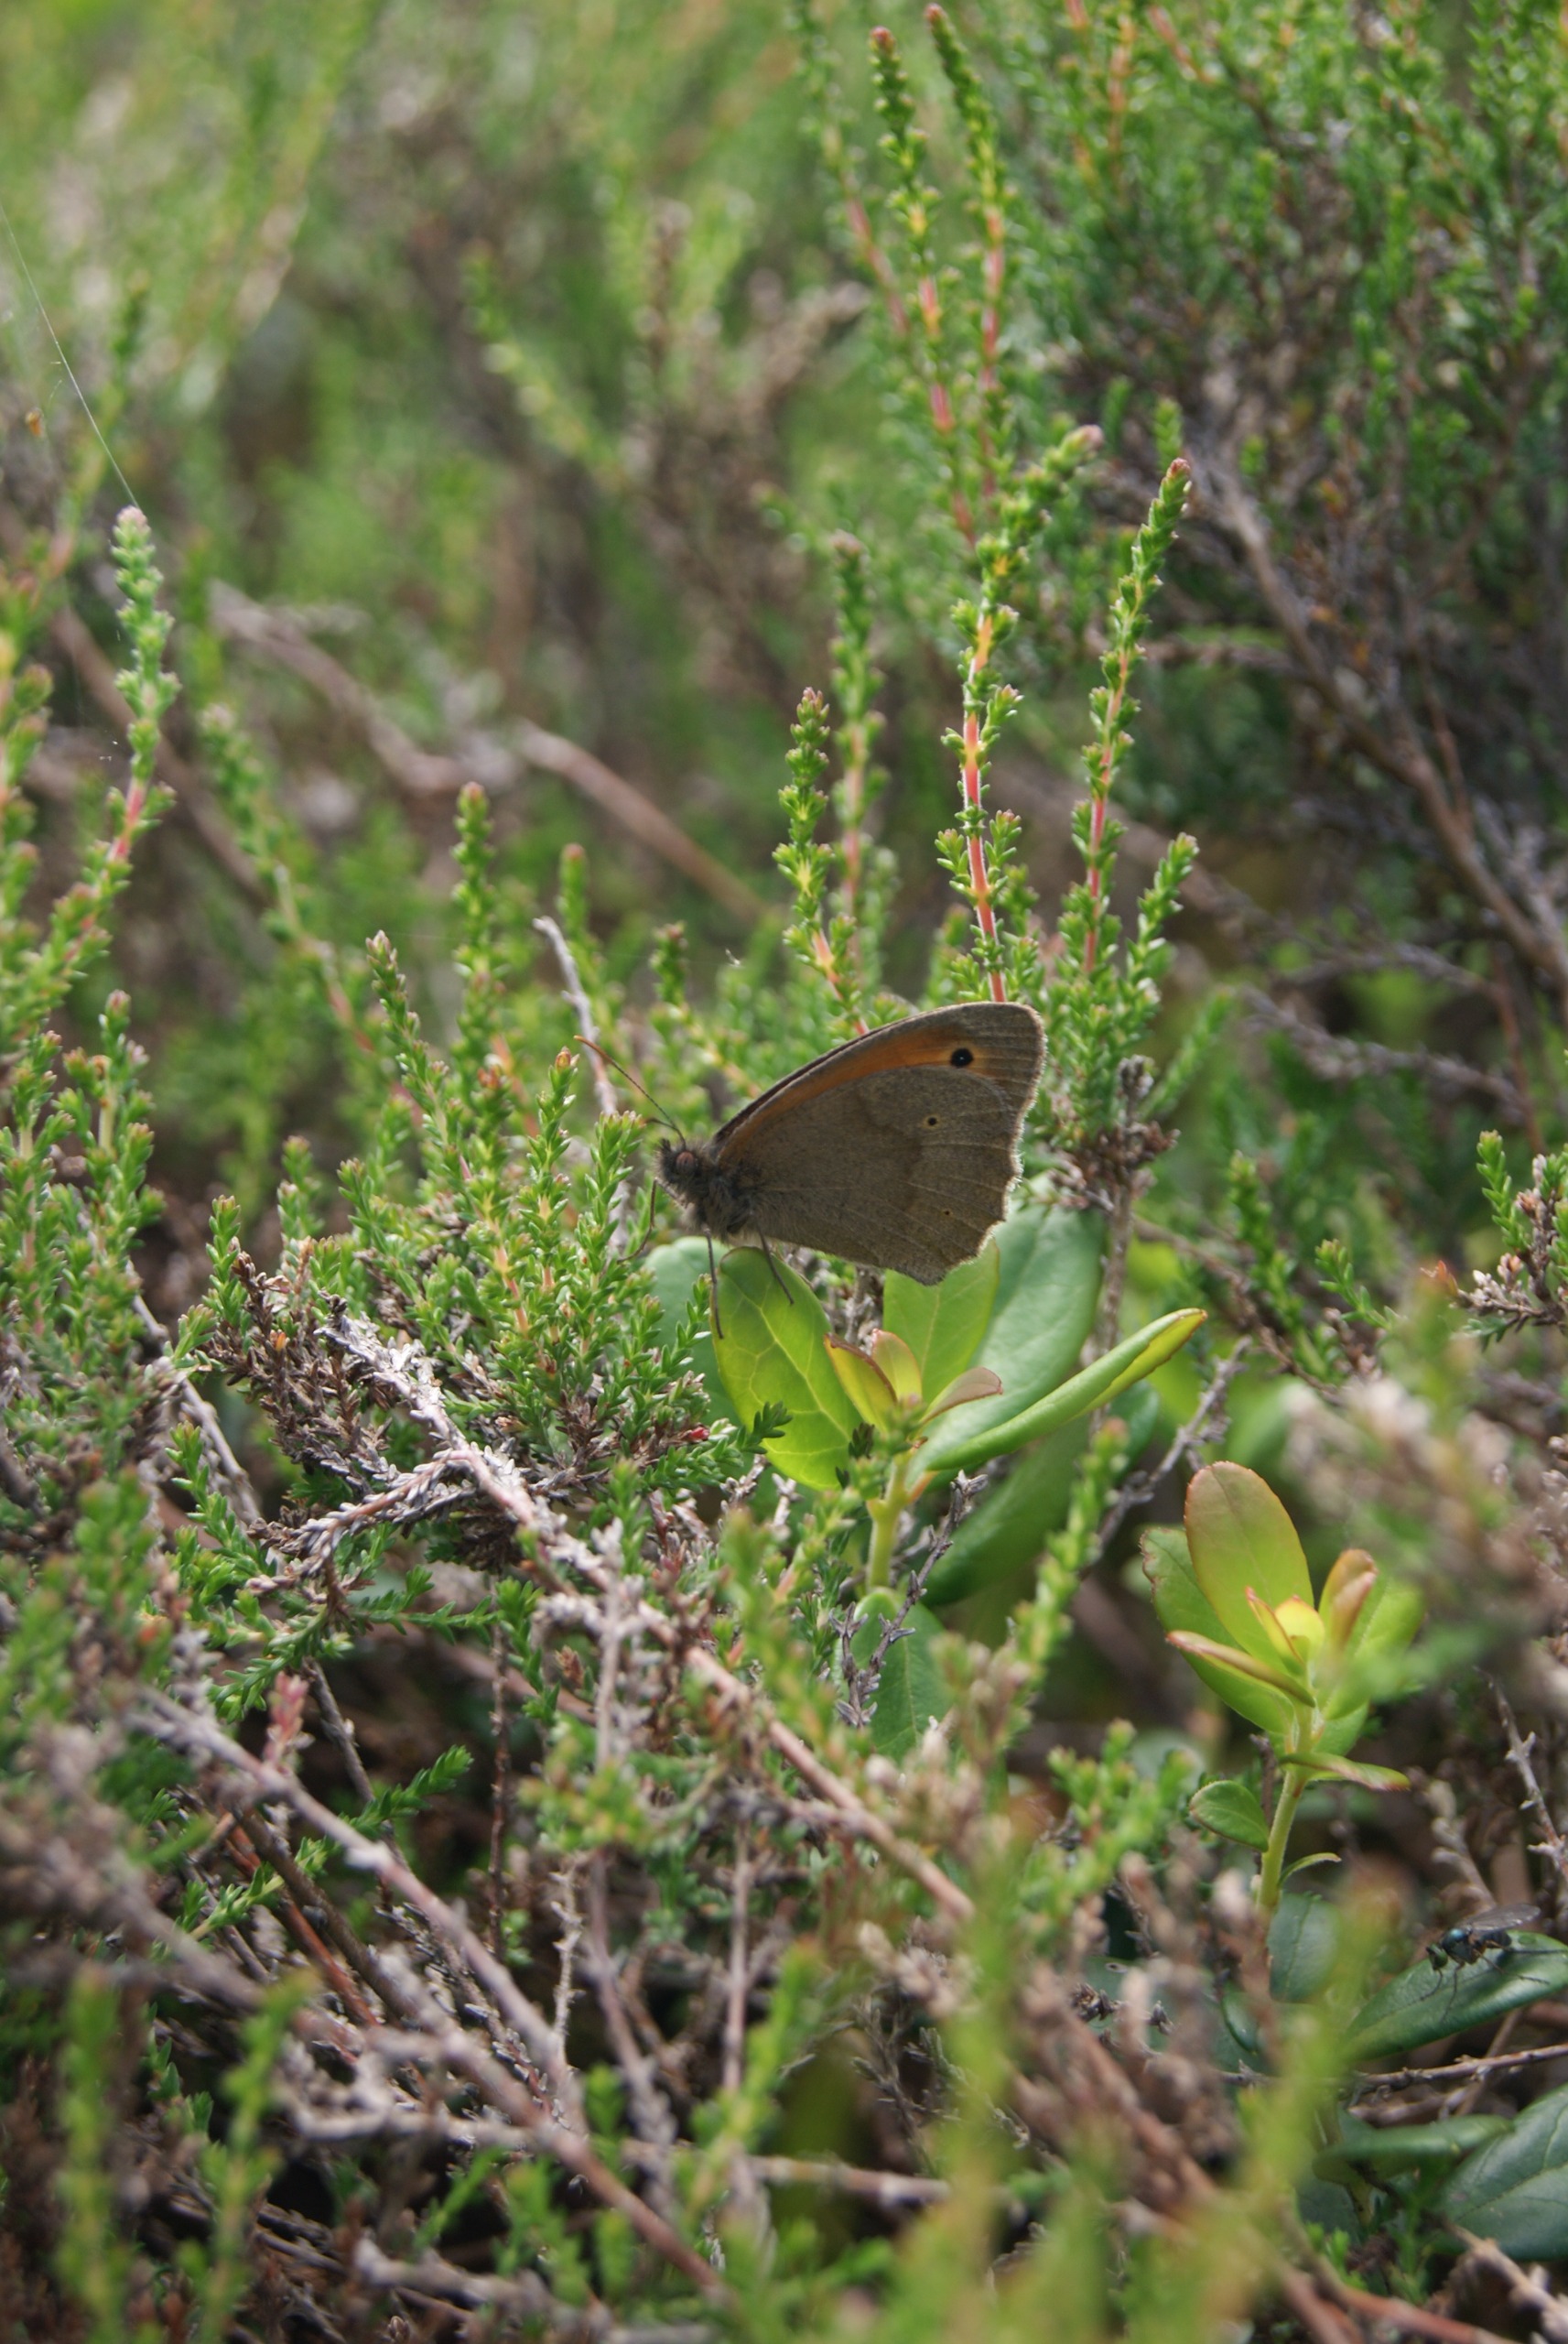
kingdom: Animalia
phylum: Arthropoda
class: Insecta
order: Lepidoptera
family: Nymphalidae
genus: Maniola
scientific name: Maniola jurtina
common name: Græsrandøje
